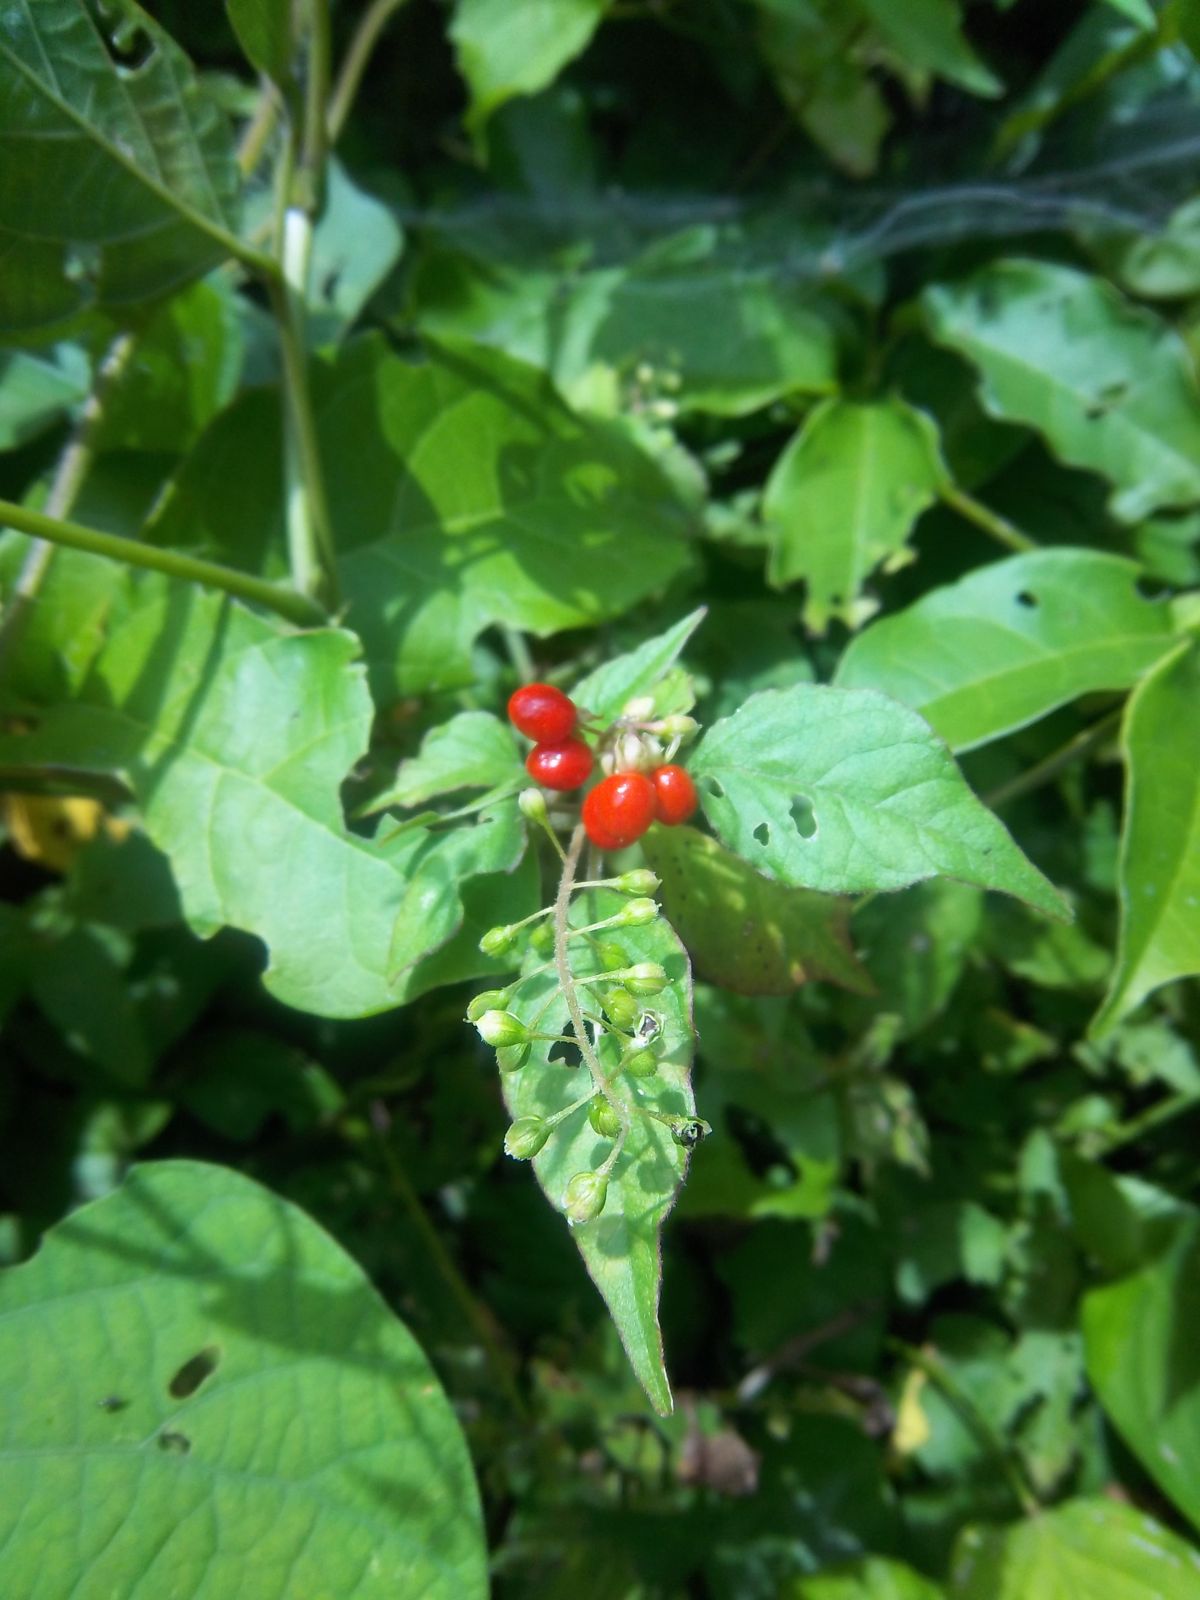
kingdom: Plantae
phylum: Tracheophyta
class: Magnoliopsida
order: Caryophyllales
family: Phytolaccaceae
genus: Rivina
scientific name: Rivina humilis
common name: Rougeplant
